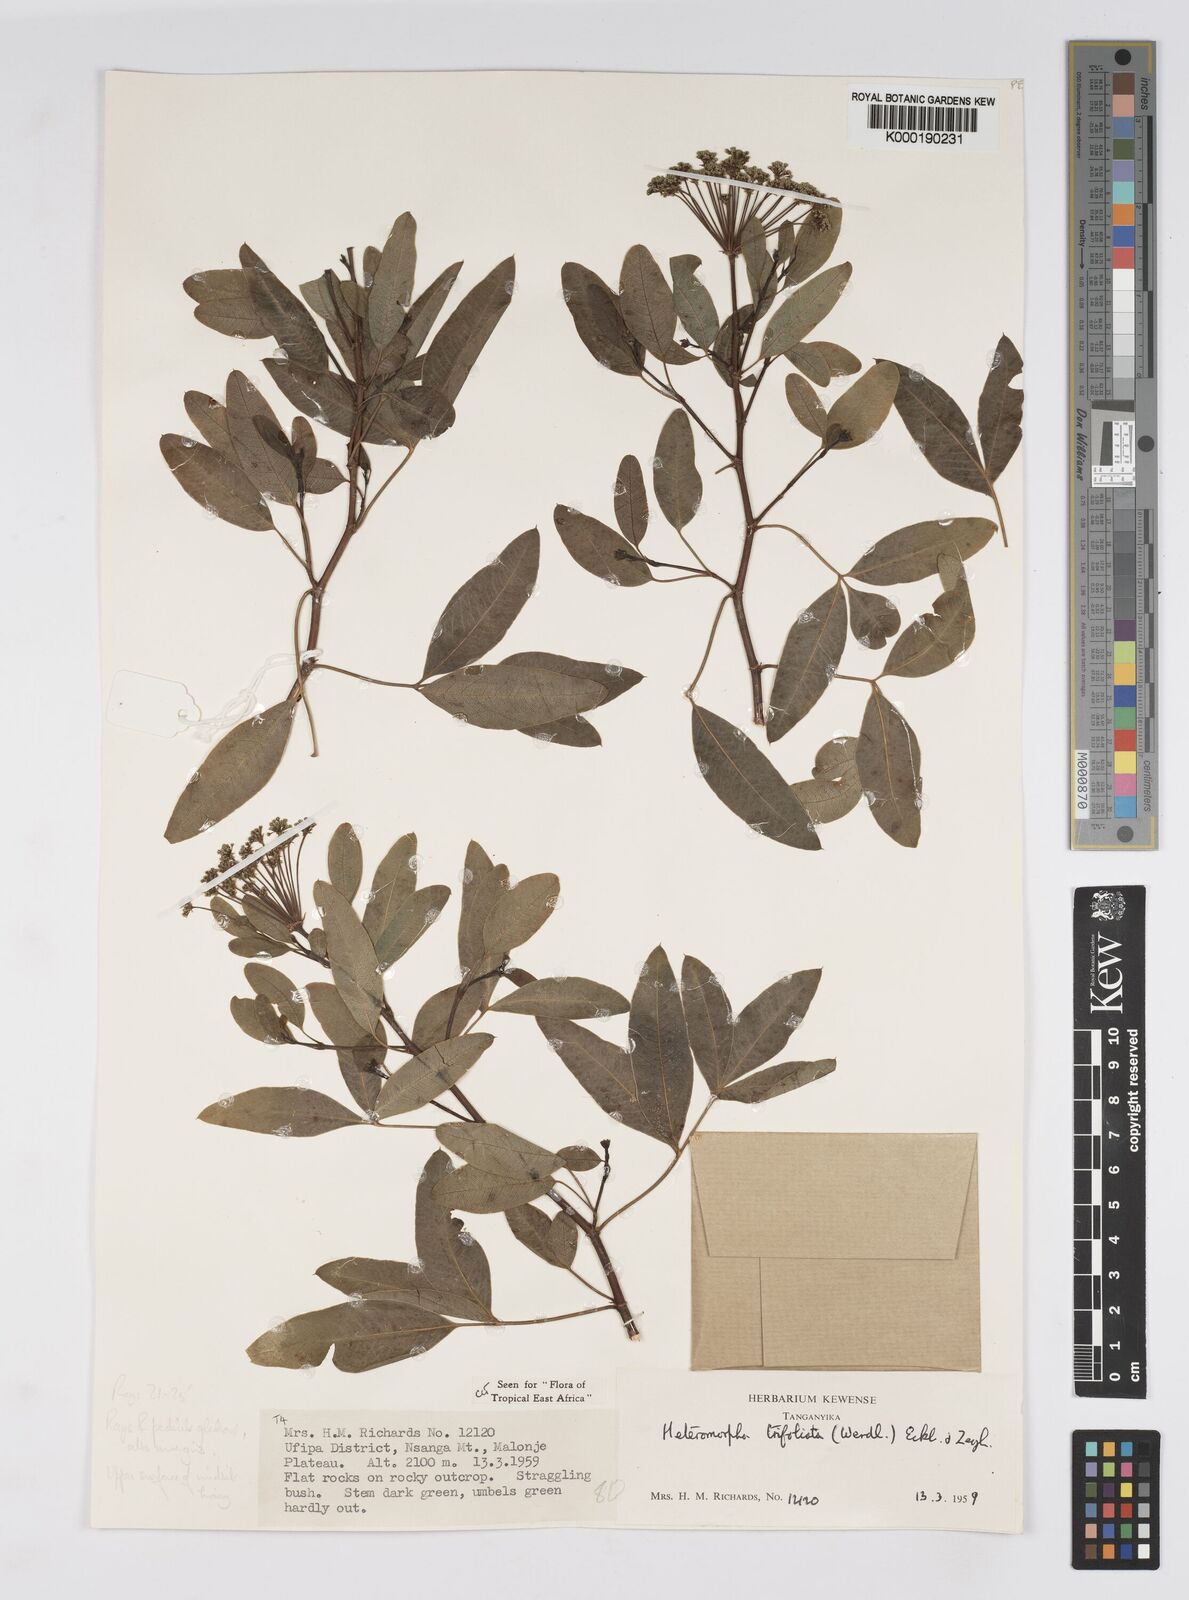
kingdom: Plantae
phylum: Tracheophyta
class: Magnoliopsida
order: Apiales
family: Apiaceae
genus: Heteromorpha
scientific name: Heteromorpha arborescens
